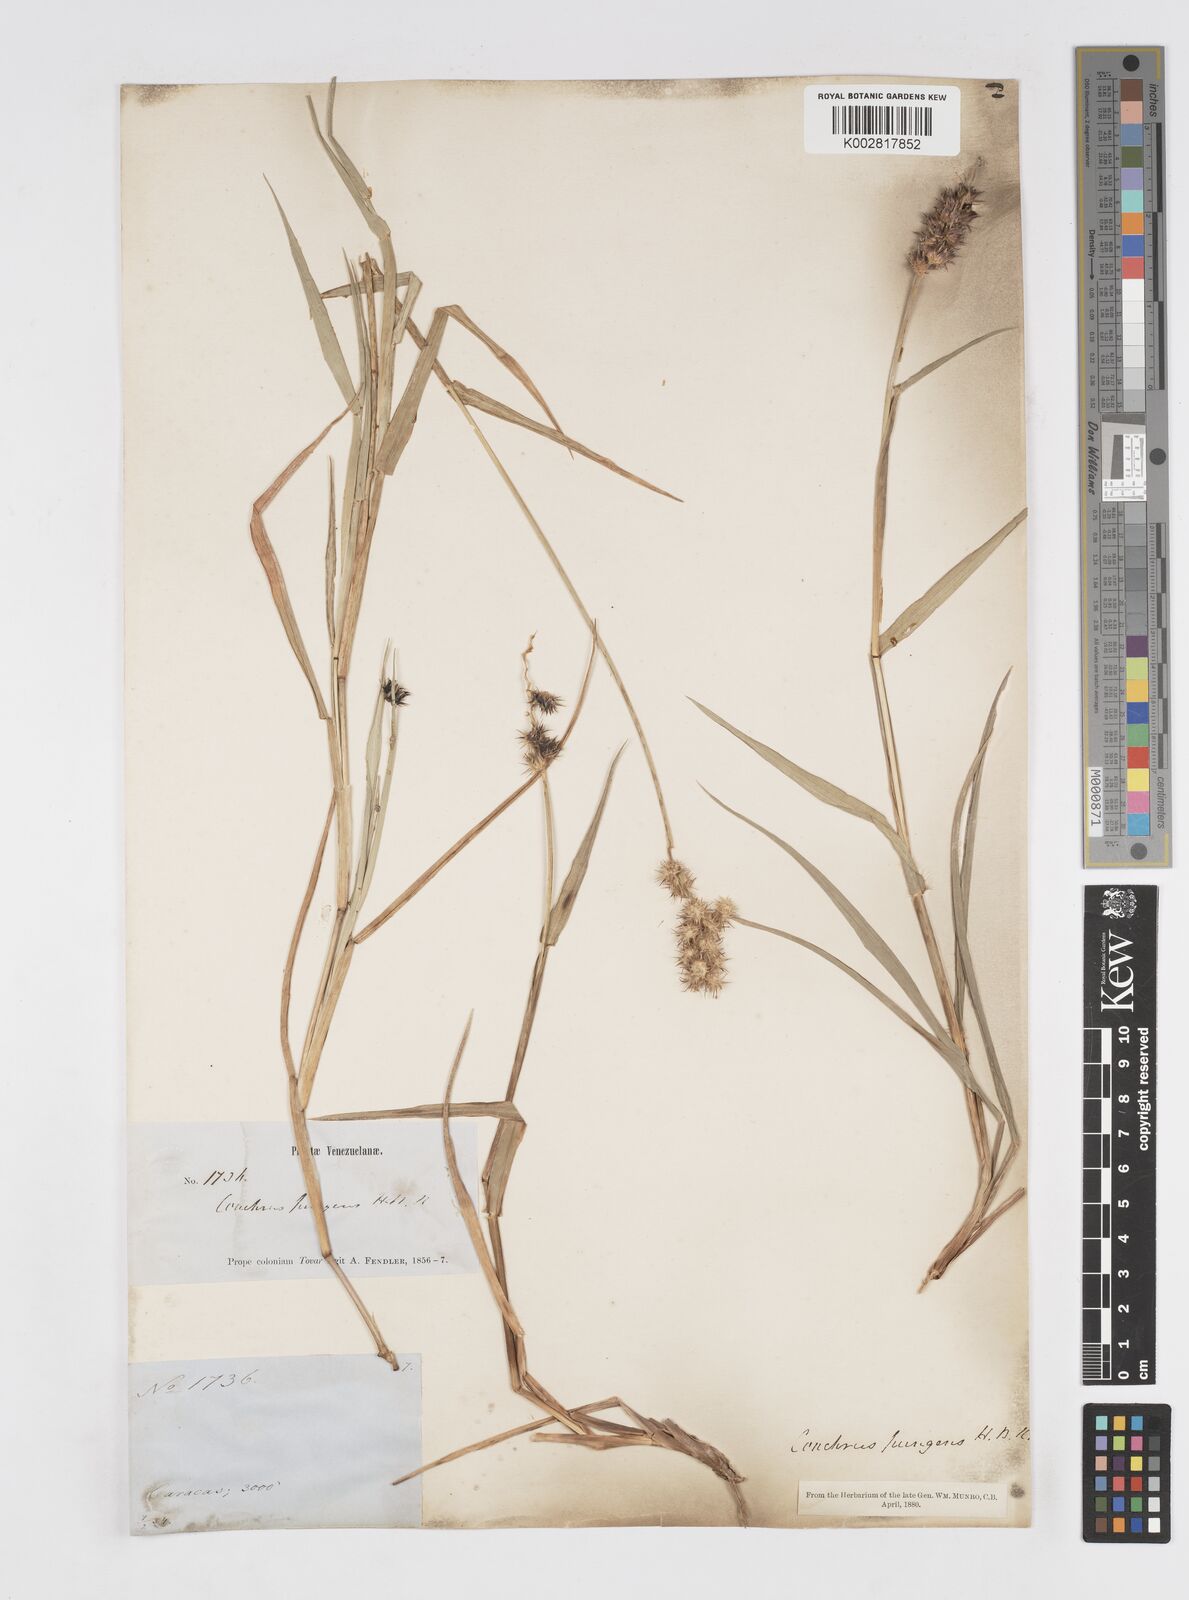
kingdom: Plantae
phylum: Tracheophyta
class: Liliopsida
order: Poales
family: Poaceae
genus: Cenchrus
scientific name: Cenchrus
